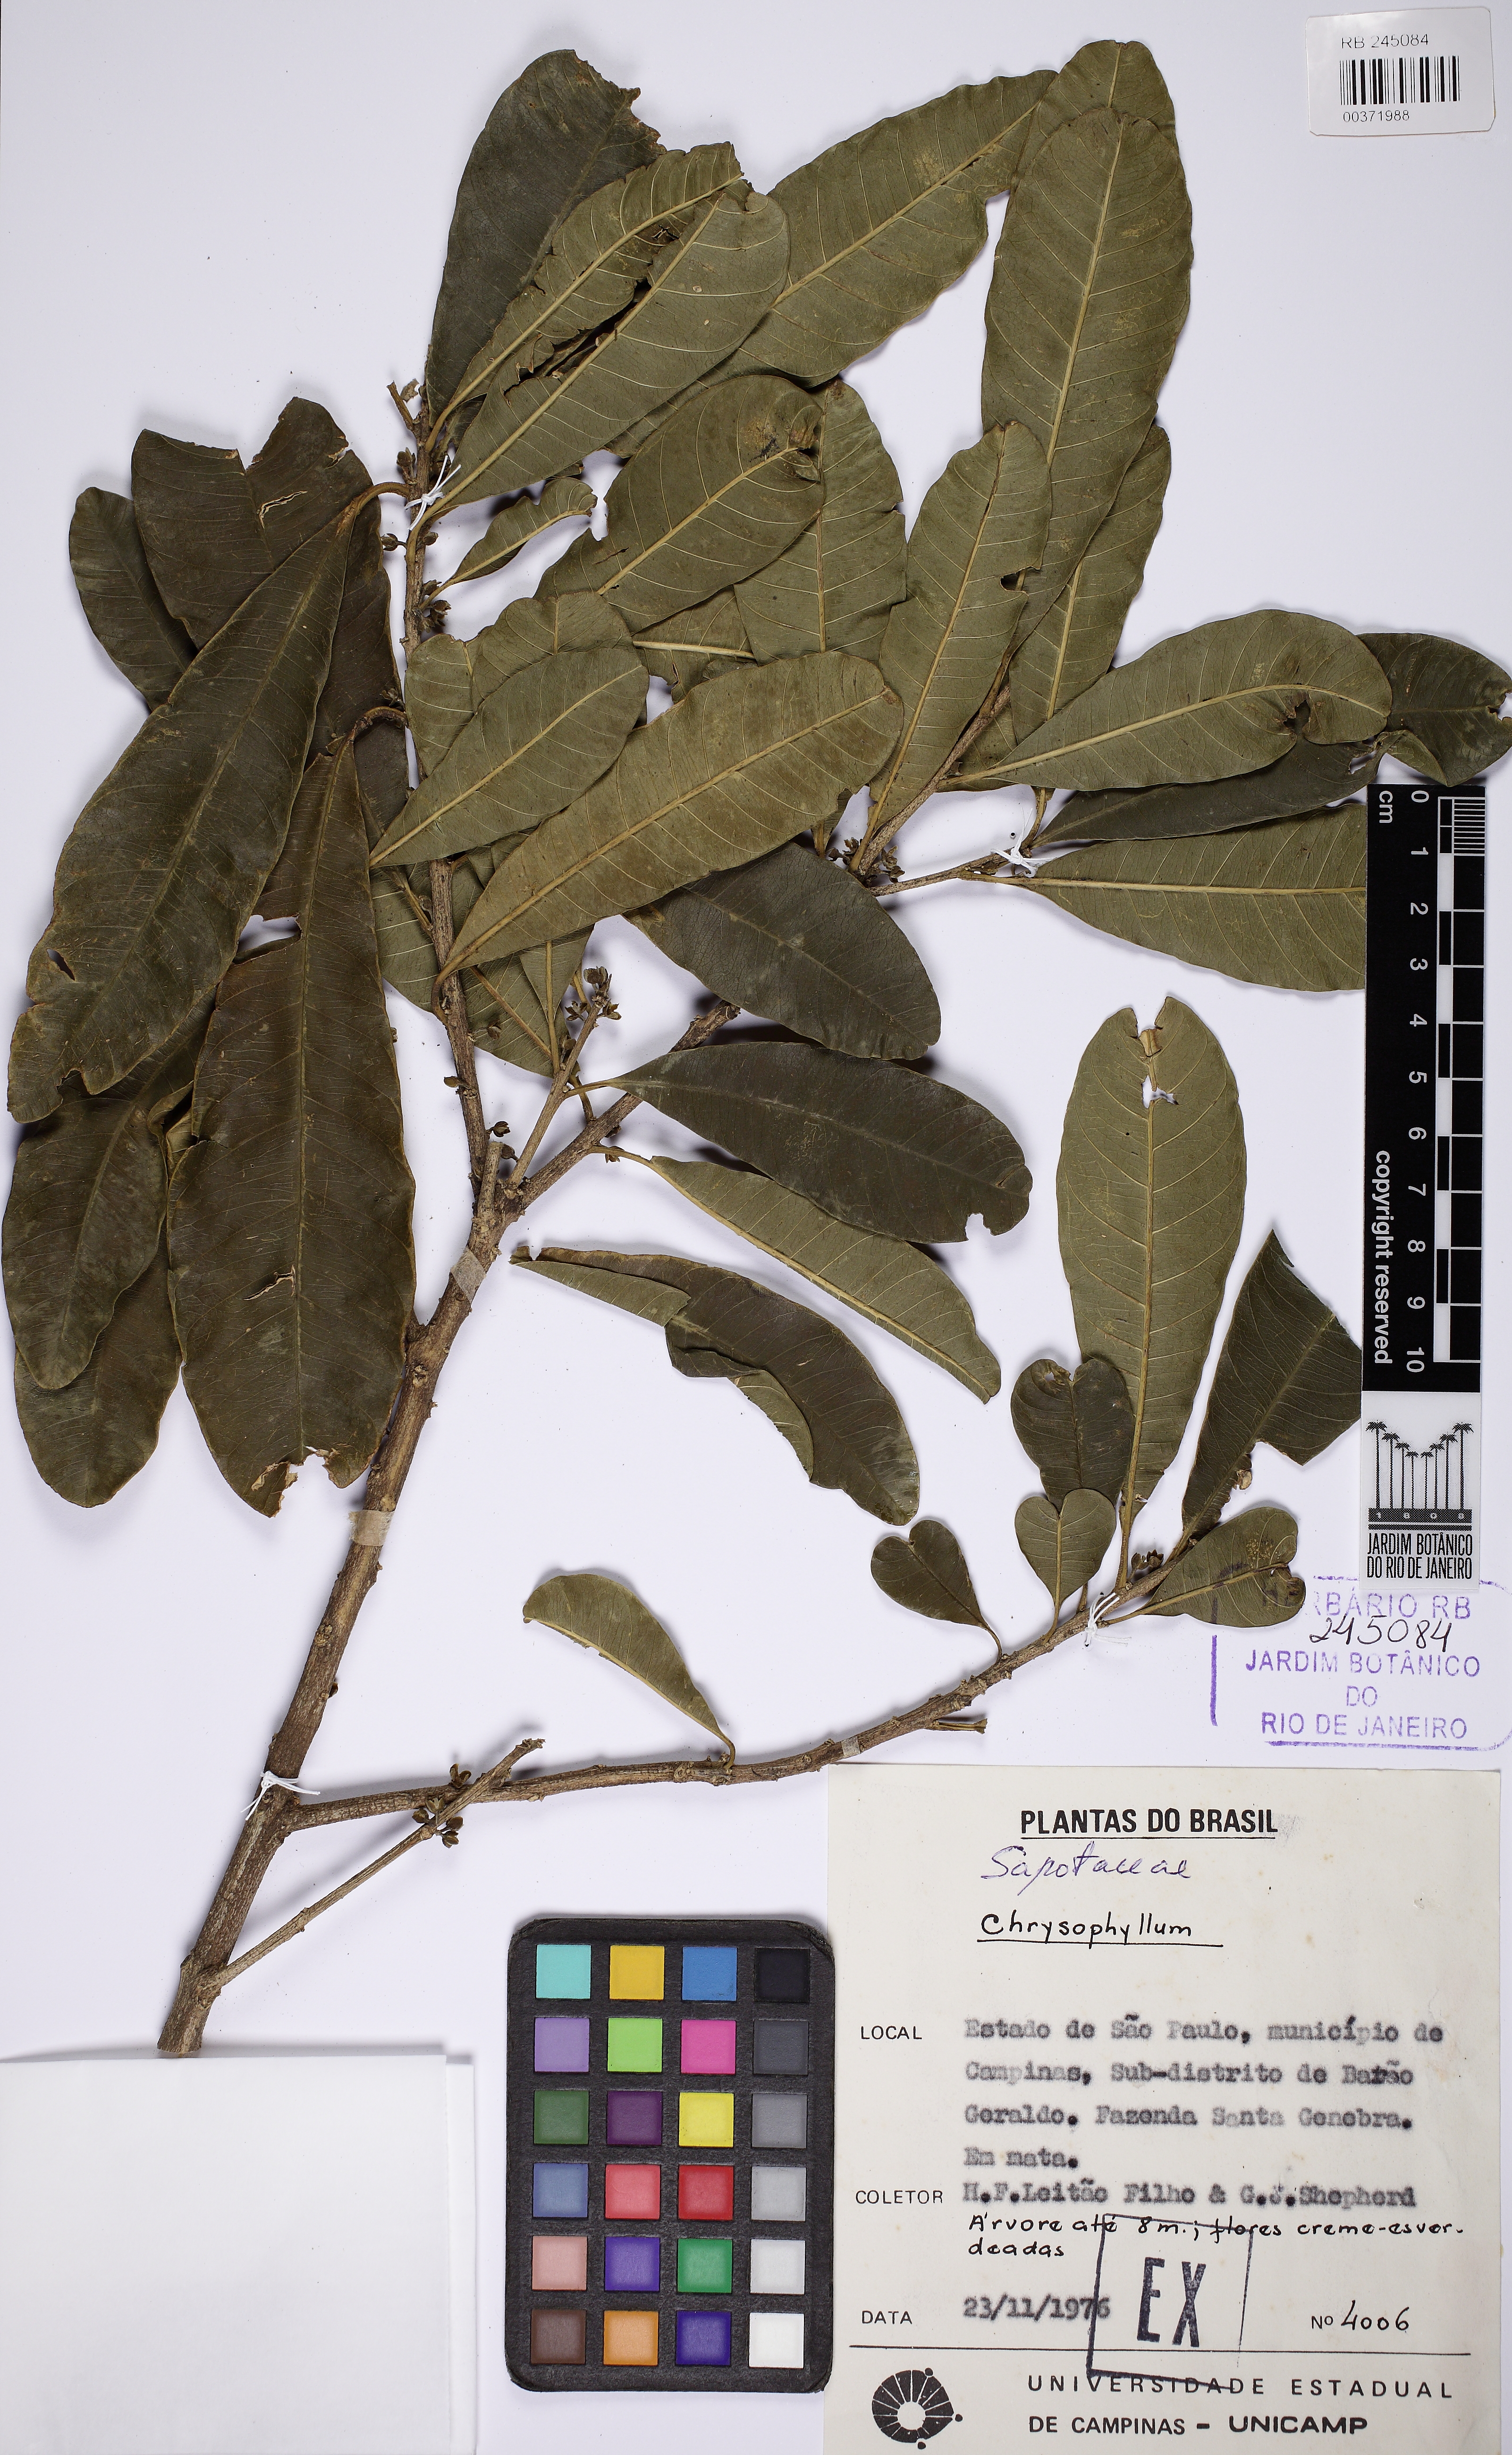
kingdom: Plantae
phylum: Tracheophyta
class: Magnoliopsida
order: Ericales
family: Sapotaceae
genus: Chrysophyllum
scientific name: Chrysophyllum
